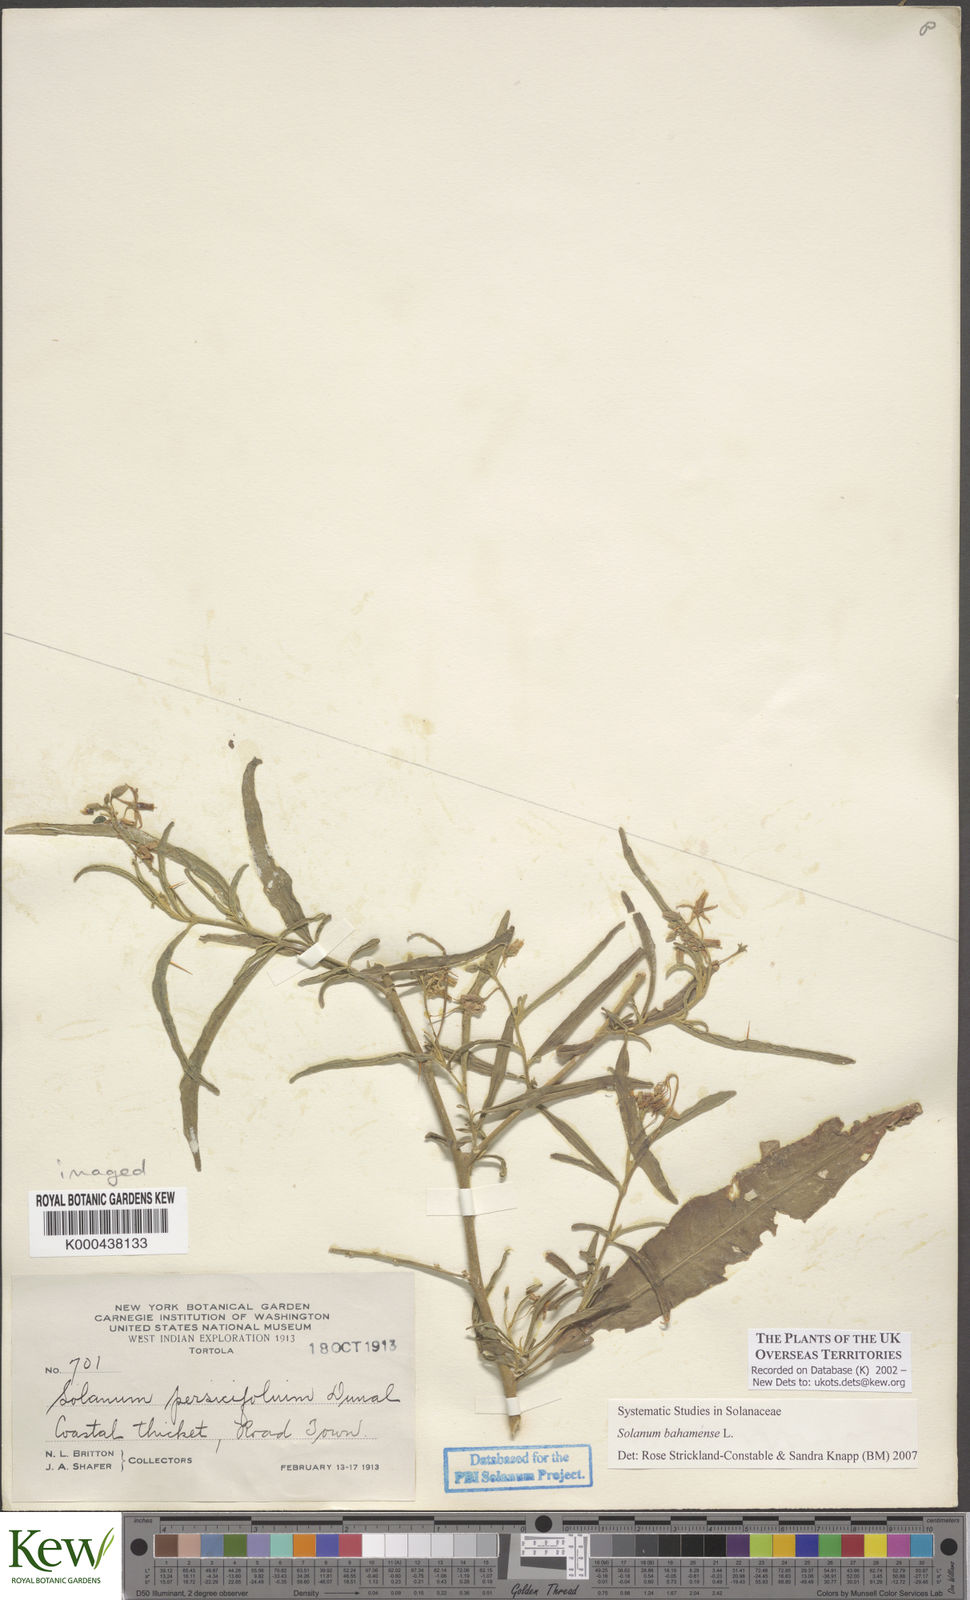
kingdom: Plantae
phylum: Tracheophyta
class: Magnoliopsida
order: Solanales
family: Solanaceae
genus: Solanum
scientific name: Solanum bahamense
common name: Canker-berry
